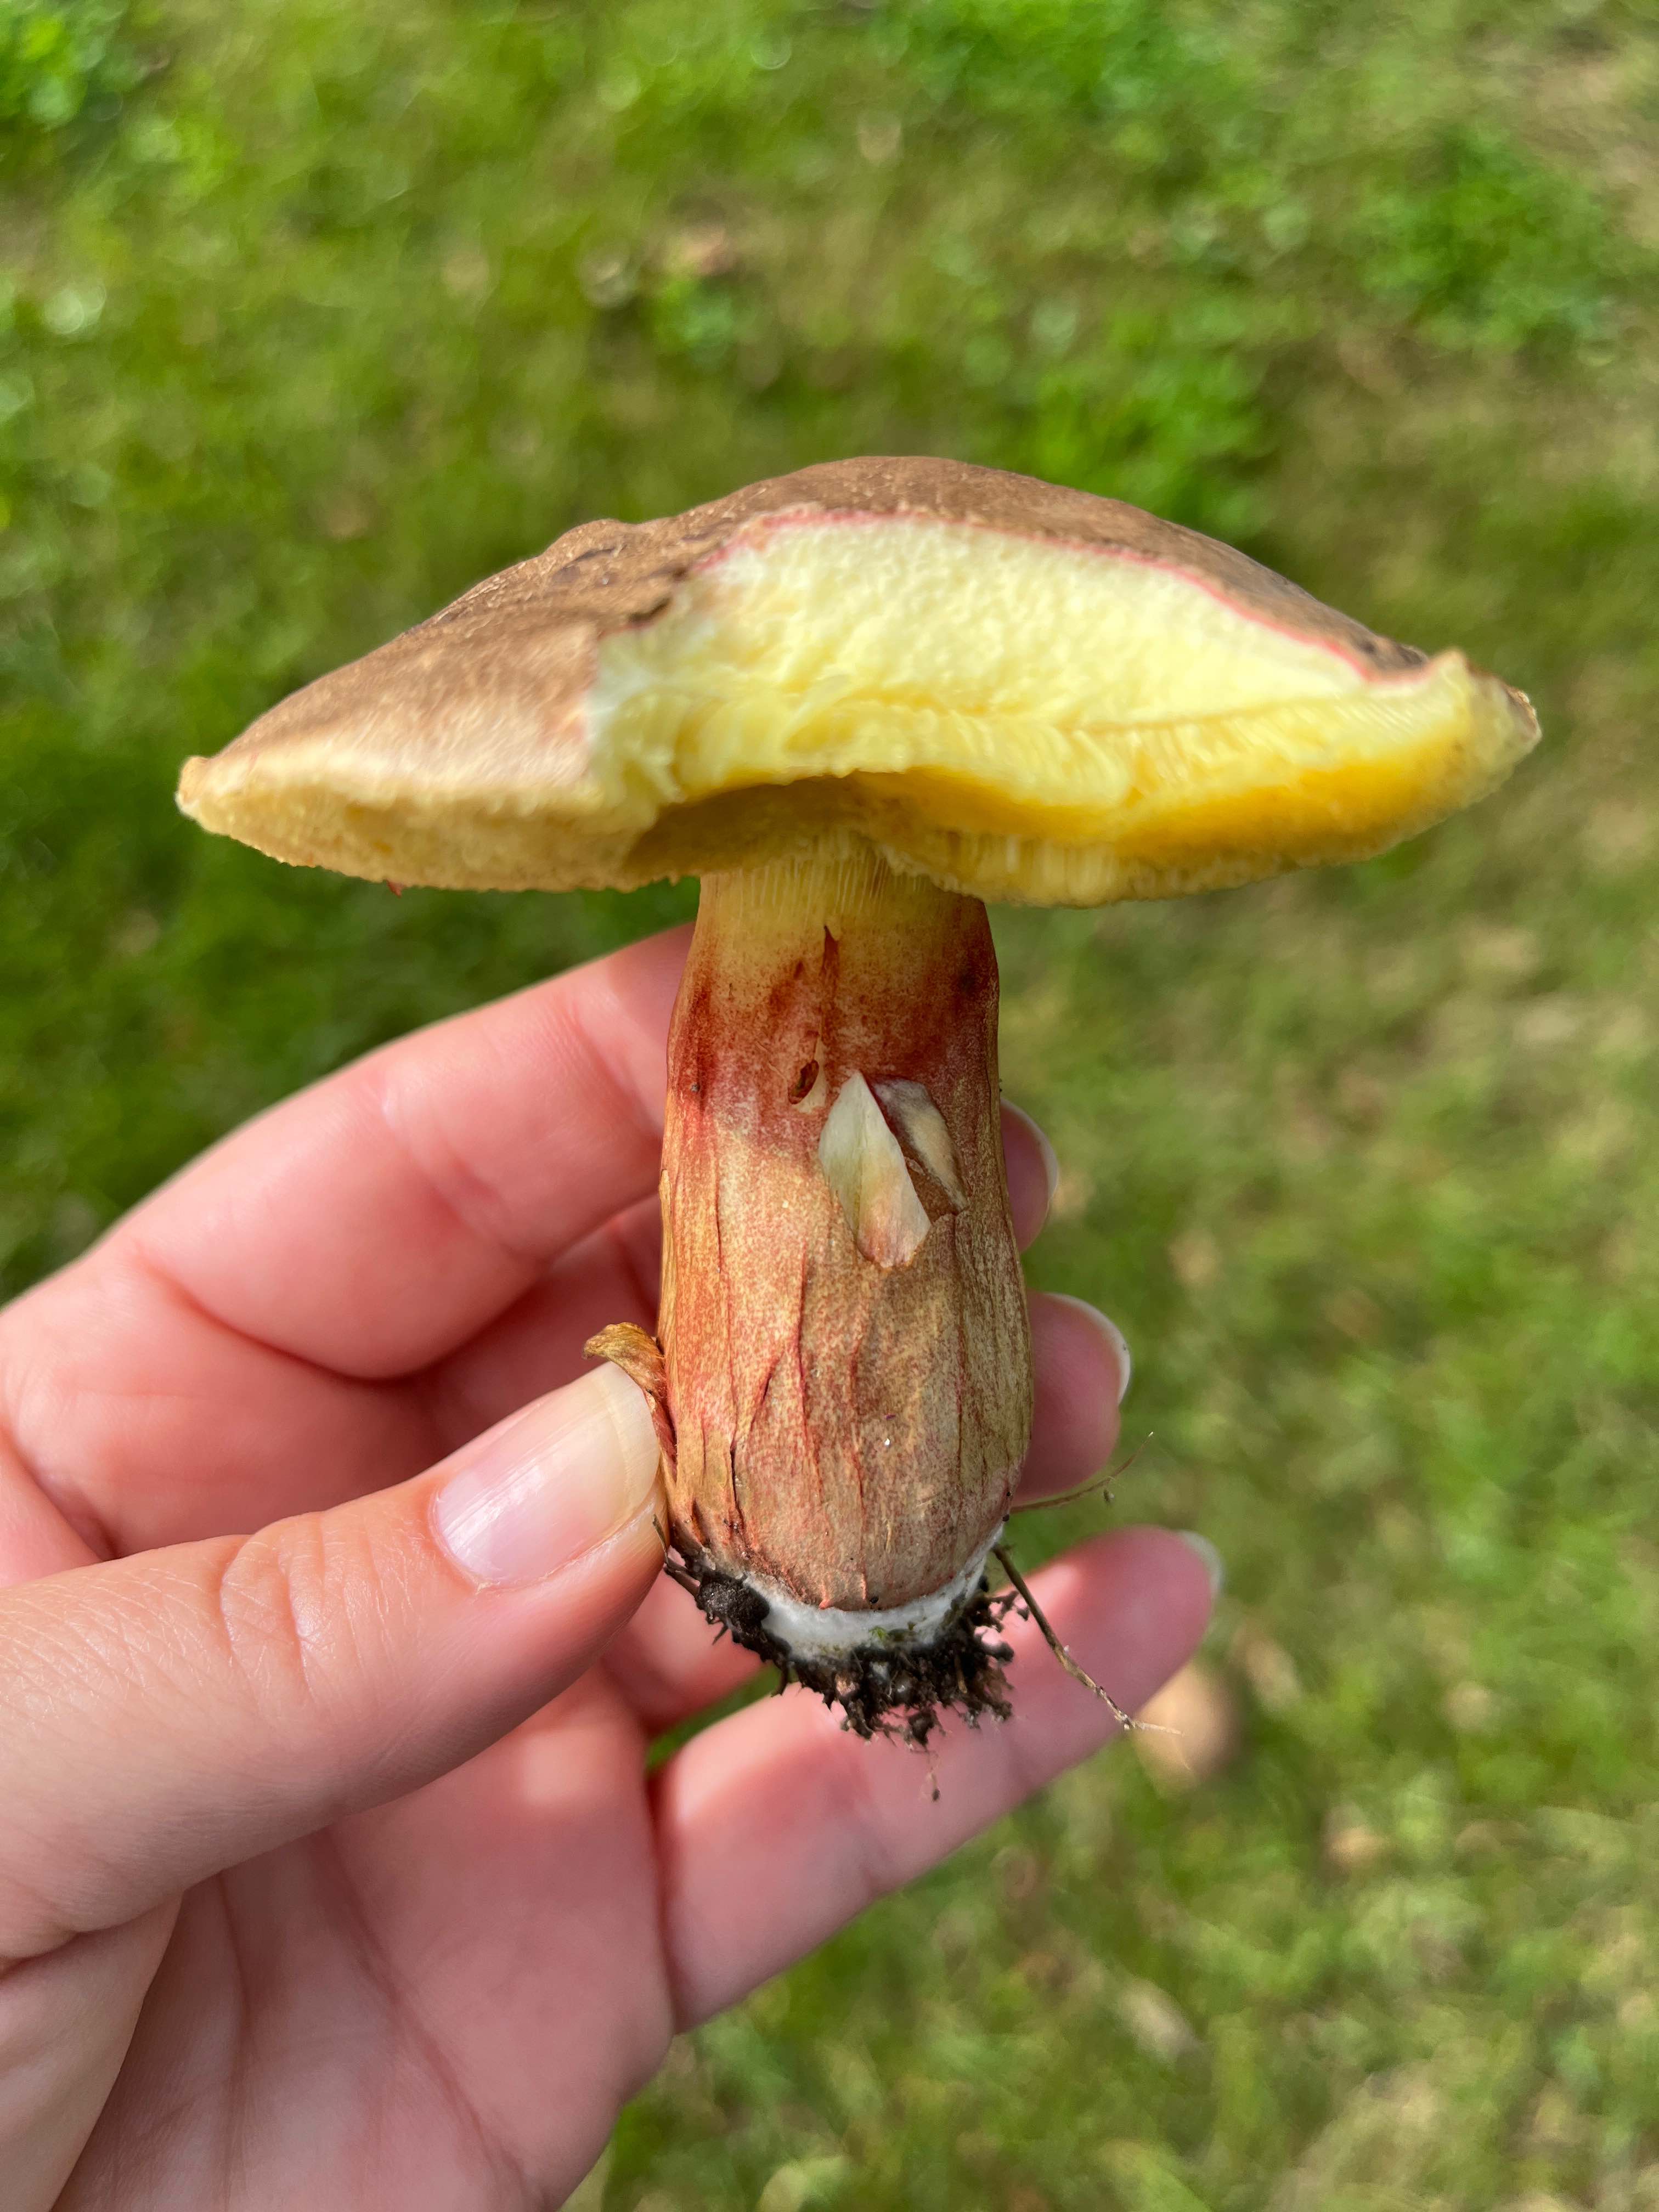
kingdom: Fungi
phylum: Basidiomycota
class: Agaricomycetes
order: Boletales
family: Boletaceae
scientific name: Boletaceae
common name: rørhatfamilien
